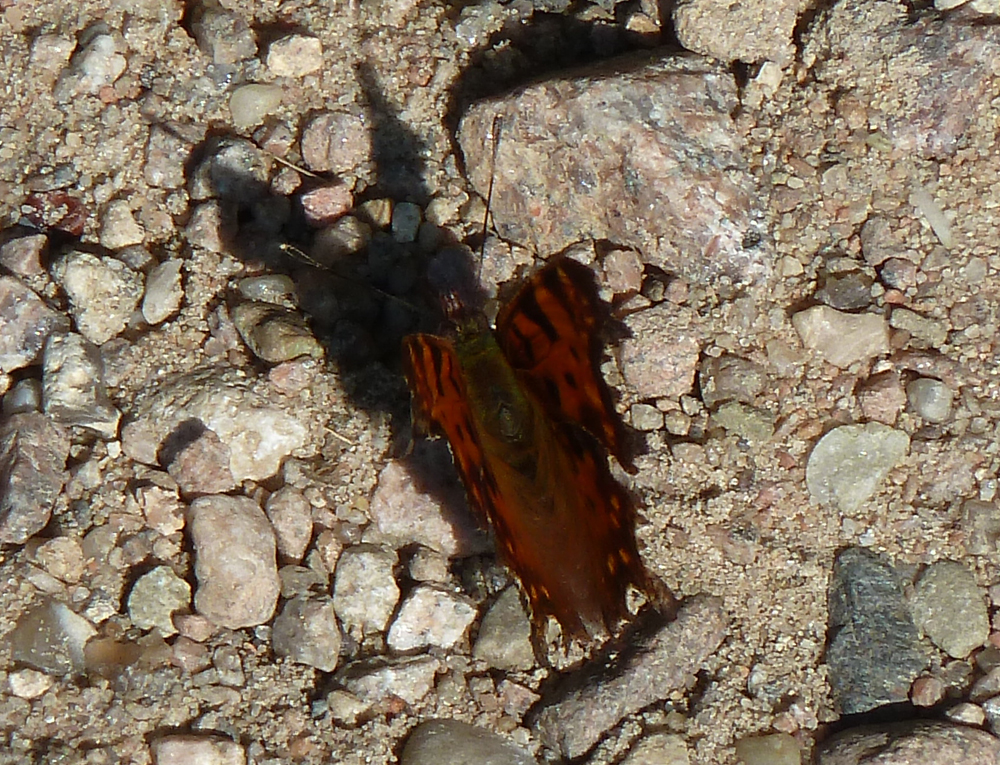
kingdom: Animalia
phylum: Arthropoda
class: Insecta
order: Lepidoptera
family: Nymphalidae
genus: Polygonia
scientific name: Polygonia c-album
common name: Comma
